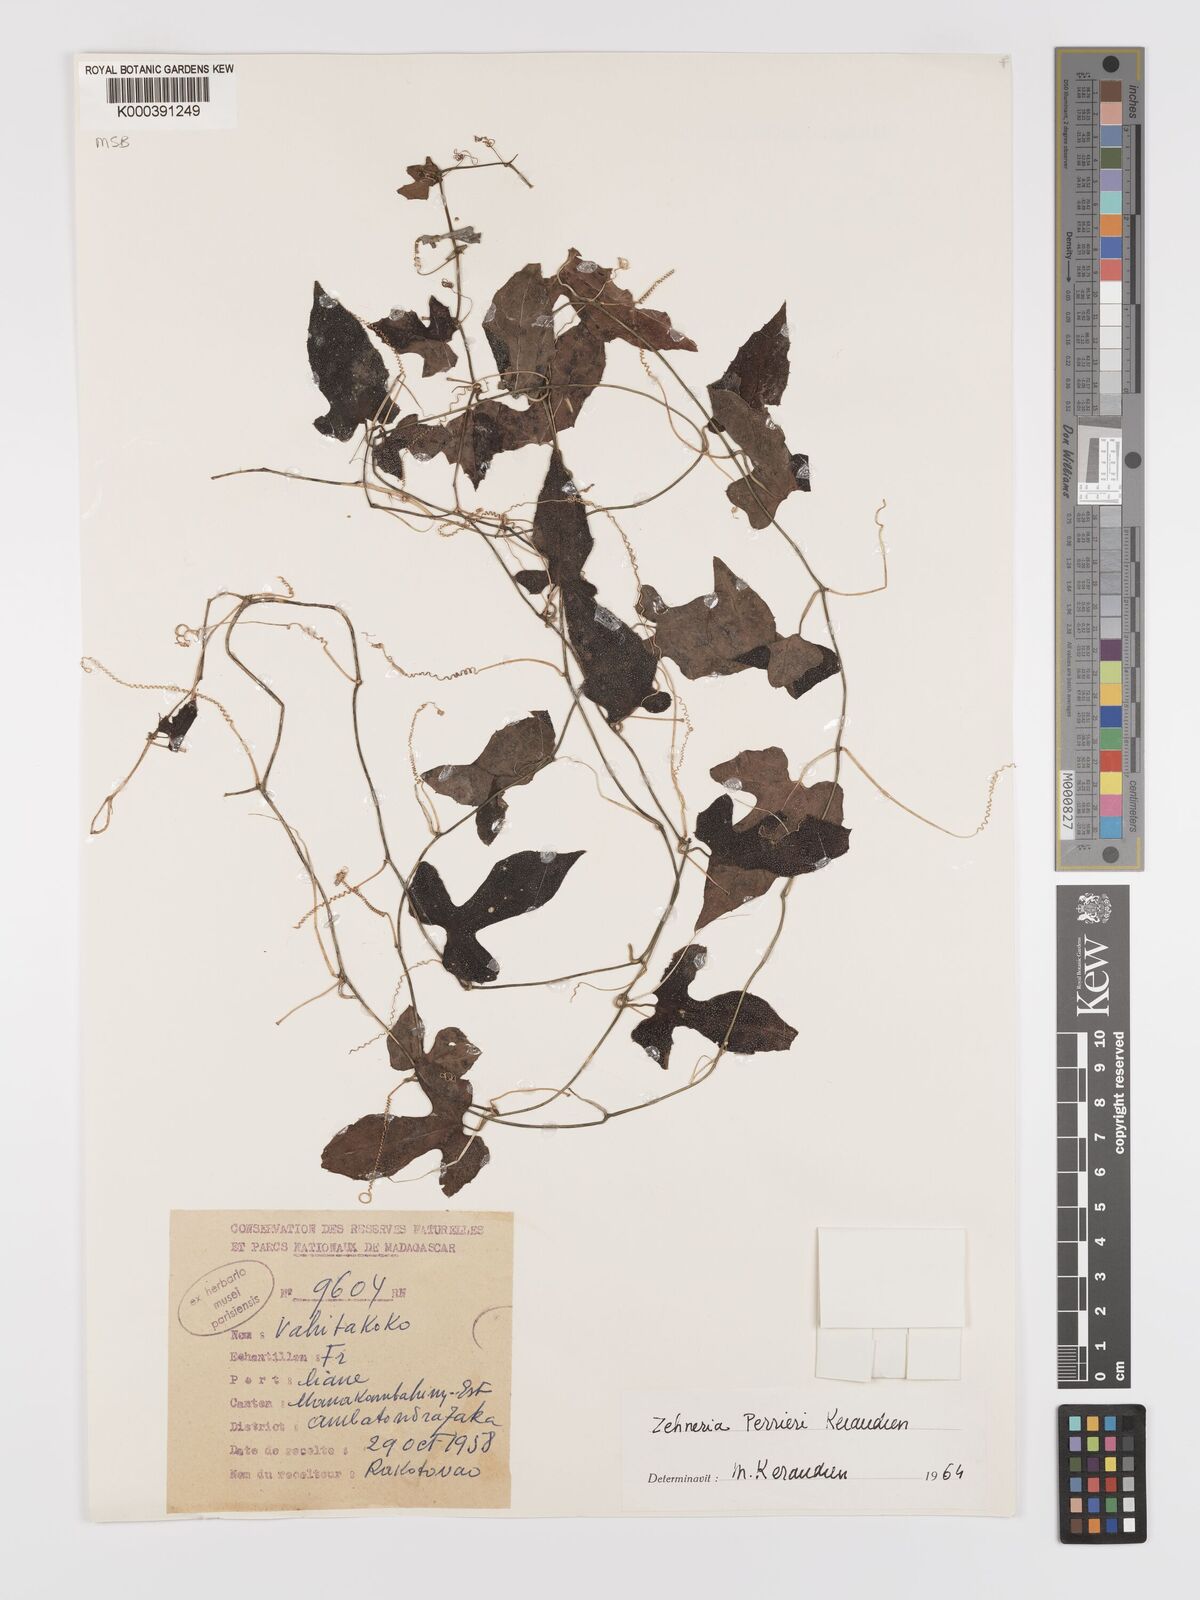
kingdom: Plantae
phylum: Tracheophyta
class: Magnoliopsida
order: Cucurbitales
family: Cucurbitaceae
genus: Zehneria
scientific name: Zehneria perrieri
